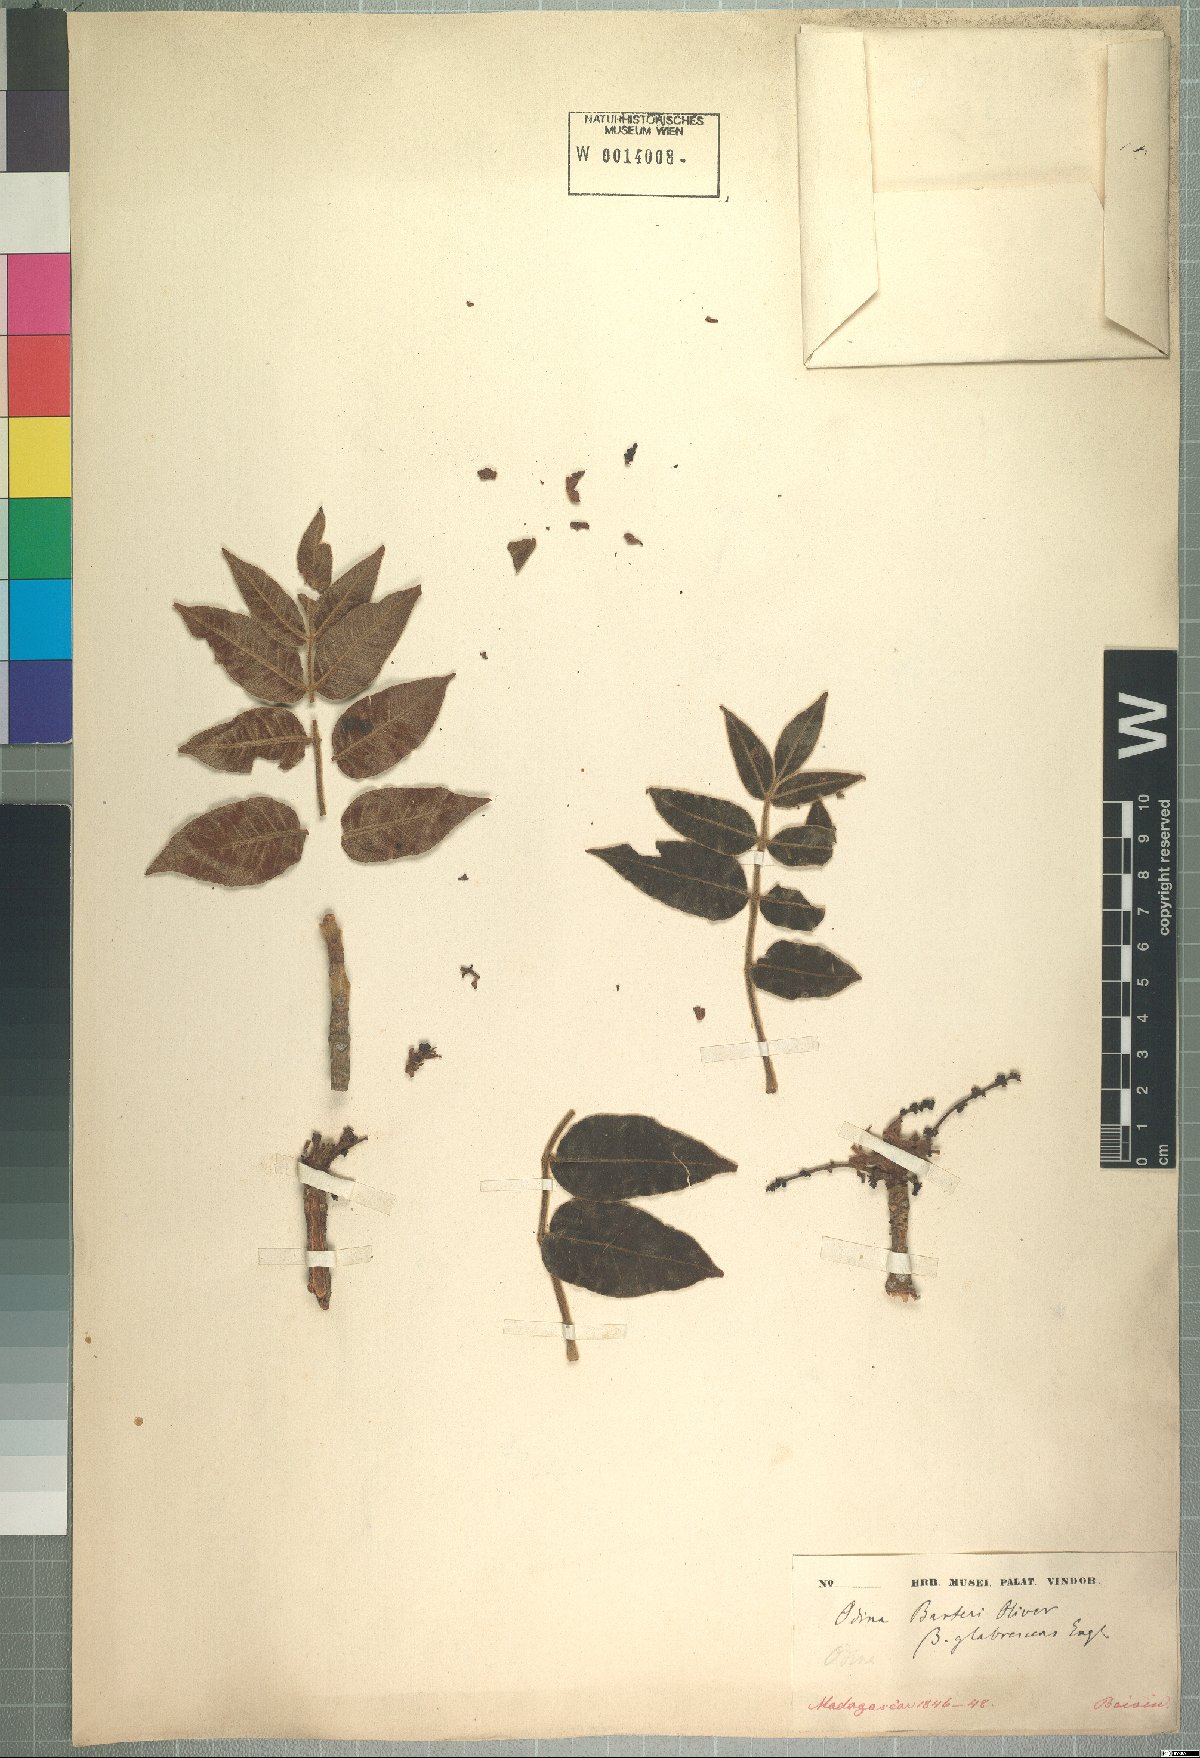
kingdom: Plantae
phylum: Tracheophyta
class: Magnoliopsida
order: Sapindales
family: Anacardiaceae
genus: Lannea
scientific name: Lannea barteri
